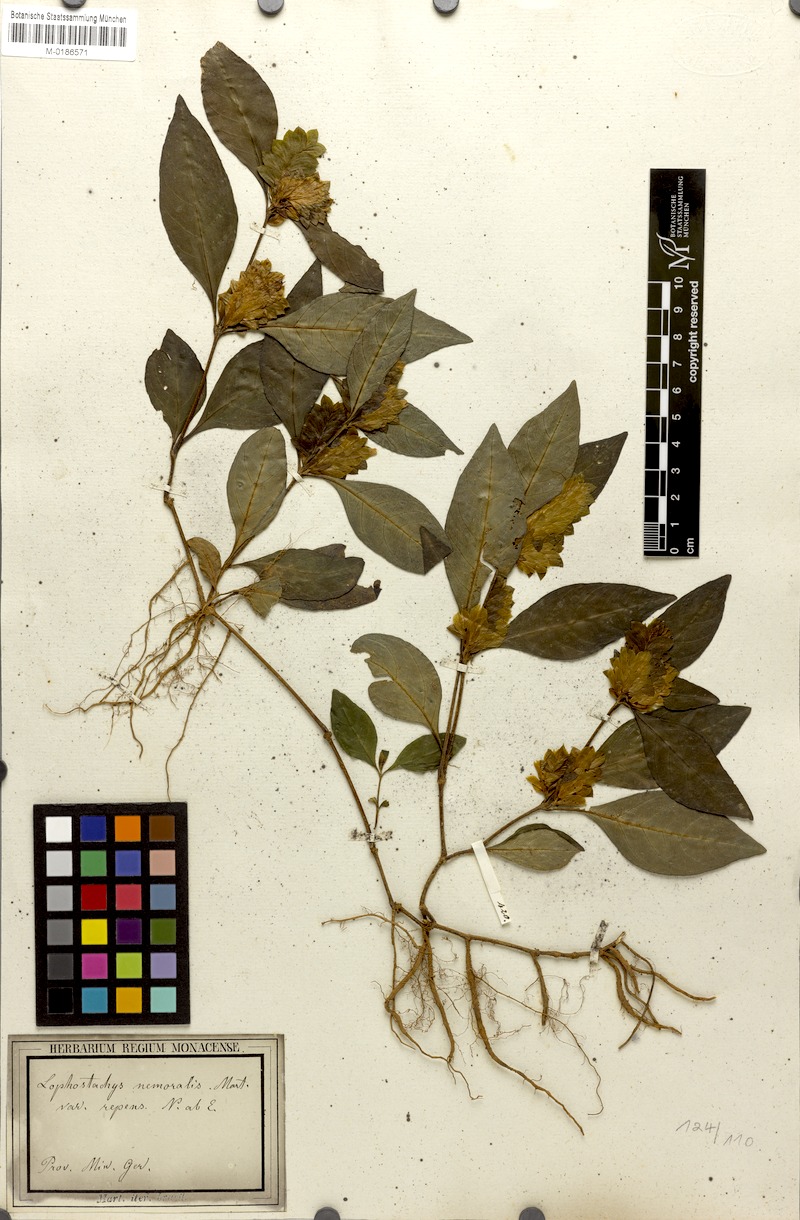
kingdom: Plantae
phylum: Tracheophyta
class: Magnoliopsida
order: Lamiales
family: Acanthaceae
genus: Lepidagathis
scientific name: Lepidagathis nemoralis
